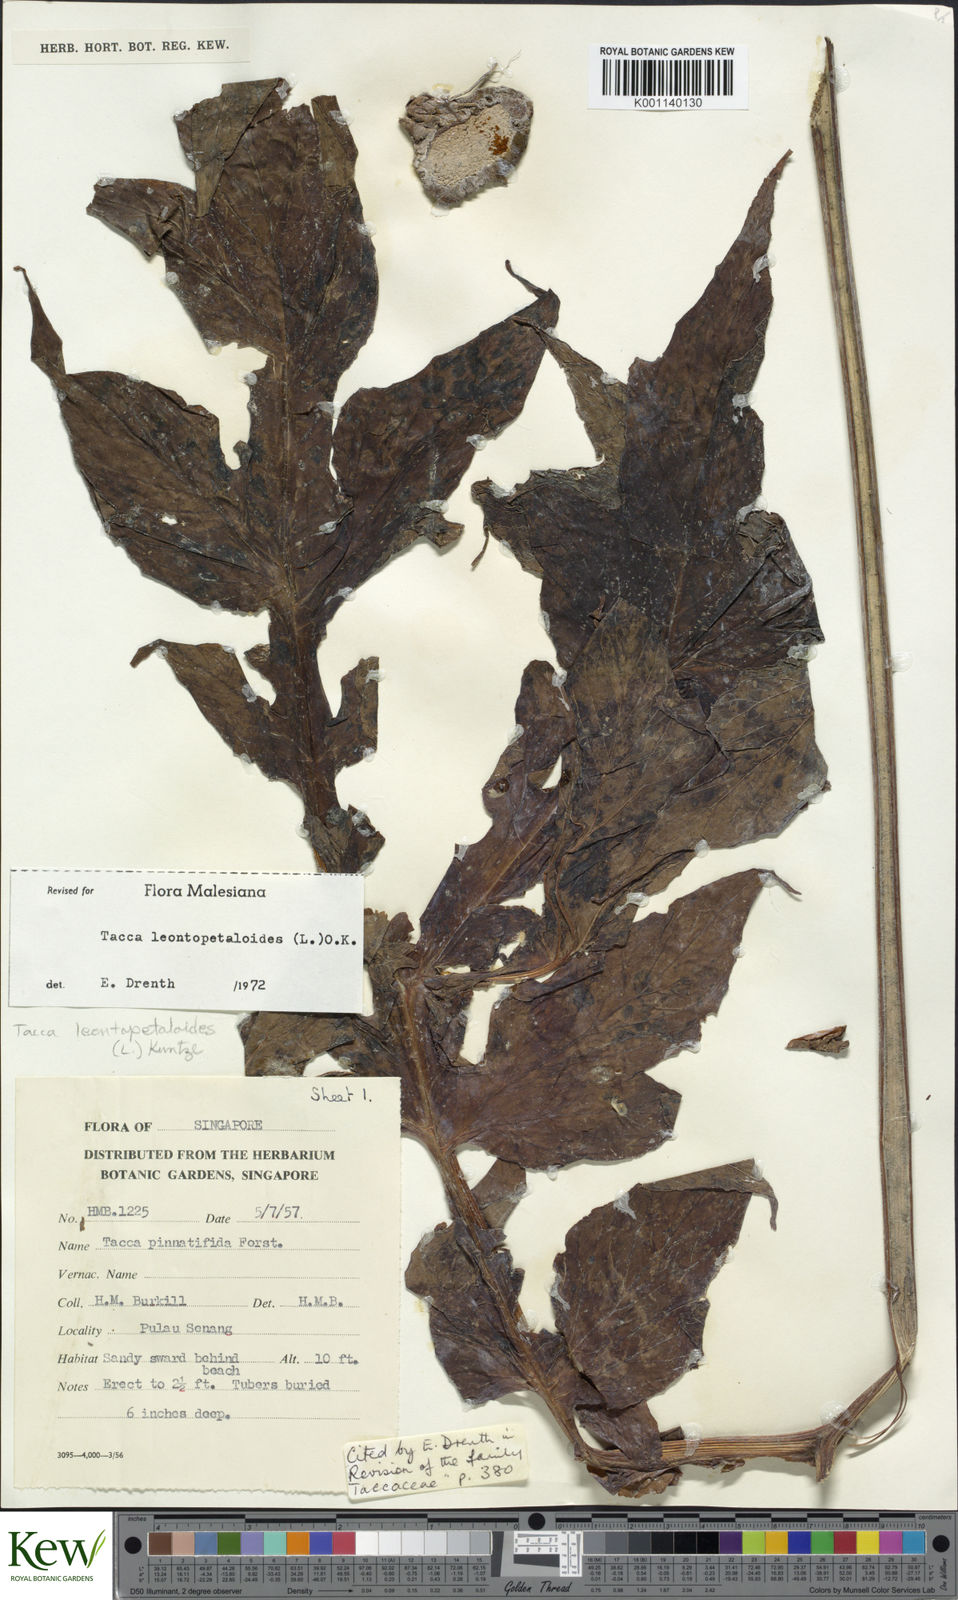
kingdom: Plantae
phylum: Tracheophyta
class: Liliopsida
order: Dioscoreales
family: Dioscoreaceae
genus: Tacca
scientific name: Tacca leontopetaloides
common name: Arrowroot
